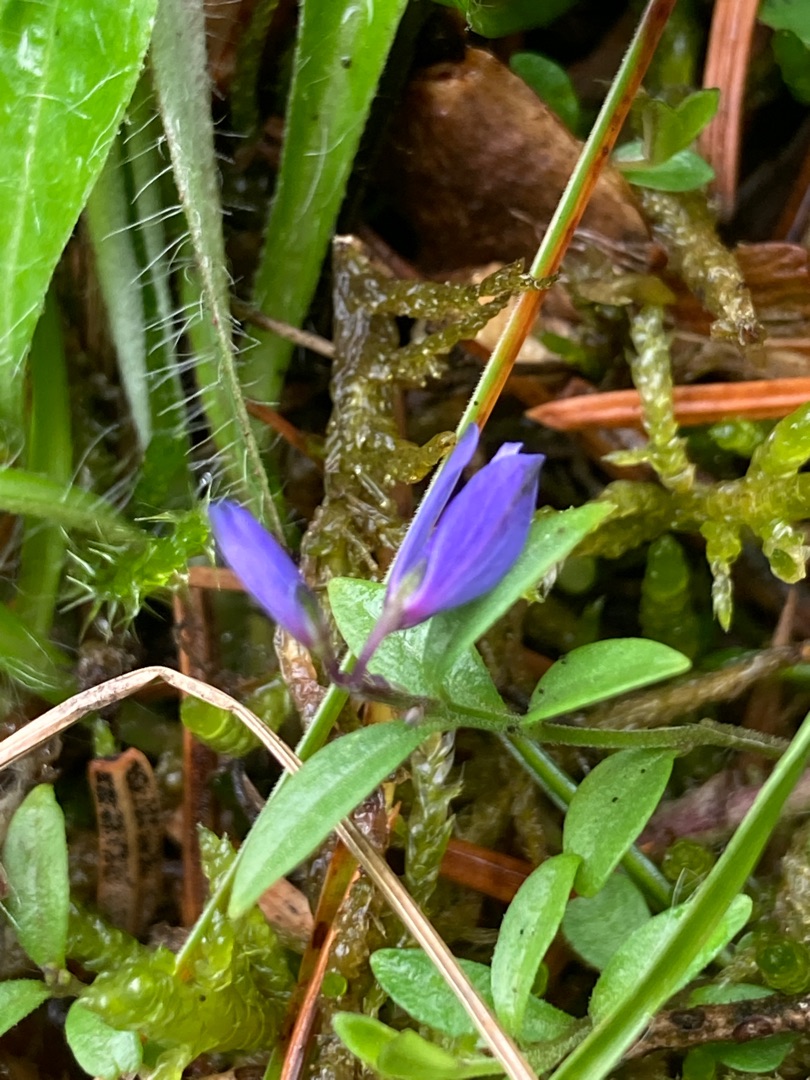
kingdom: Plantae
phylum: Tracheophyta
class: Magnoliopsida
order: Fabales
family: Polygalaceae
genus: Polygala
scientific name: Polygala serpyllifolia
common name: Spæd mælkeurt
